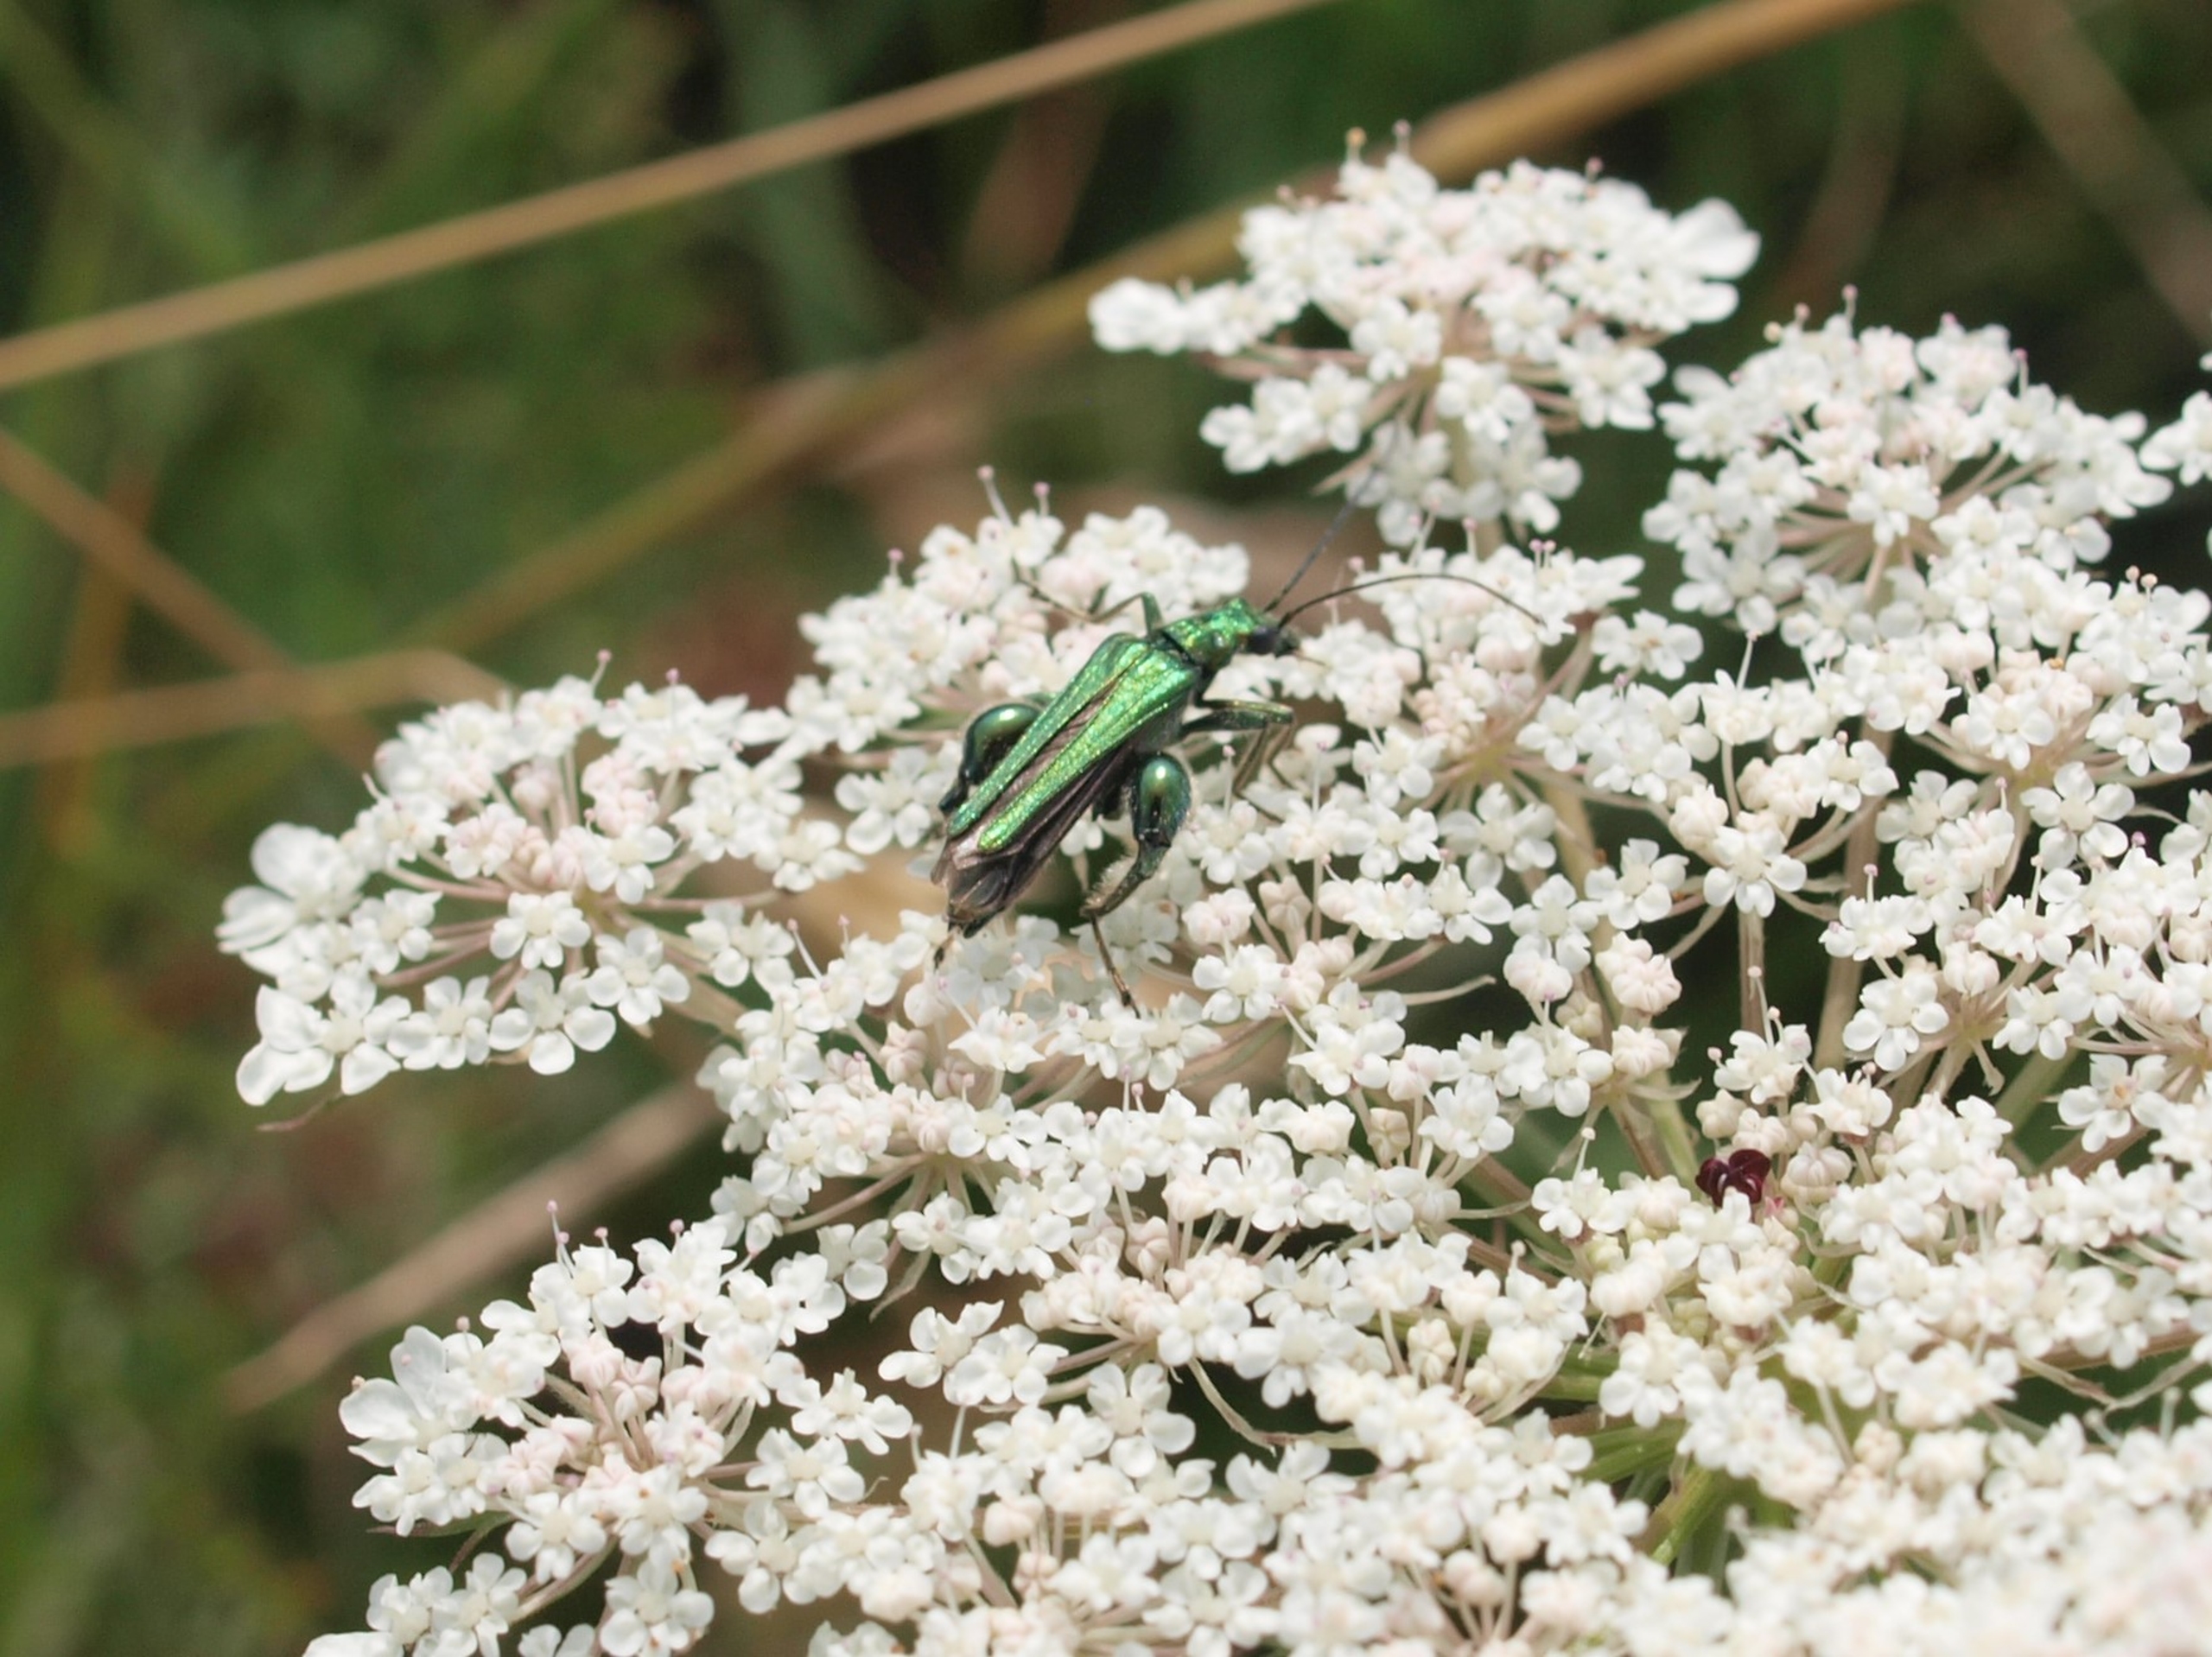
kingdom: Animalia
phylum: Arthropoda
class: Insecta
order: Coleoptera
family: Oedemeridae
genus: Oedemera
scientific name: Oedemera nobilis
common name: Tyklårssolbille
